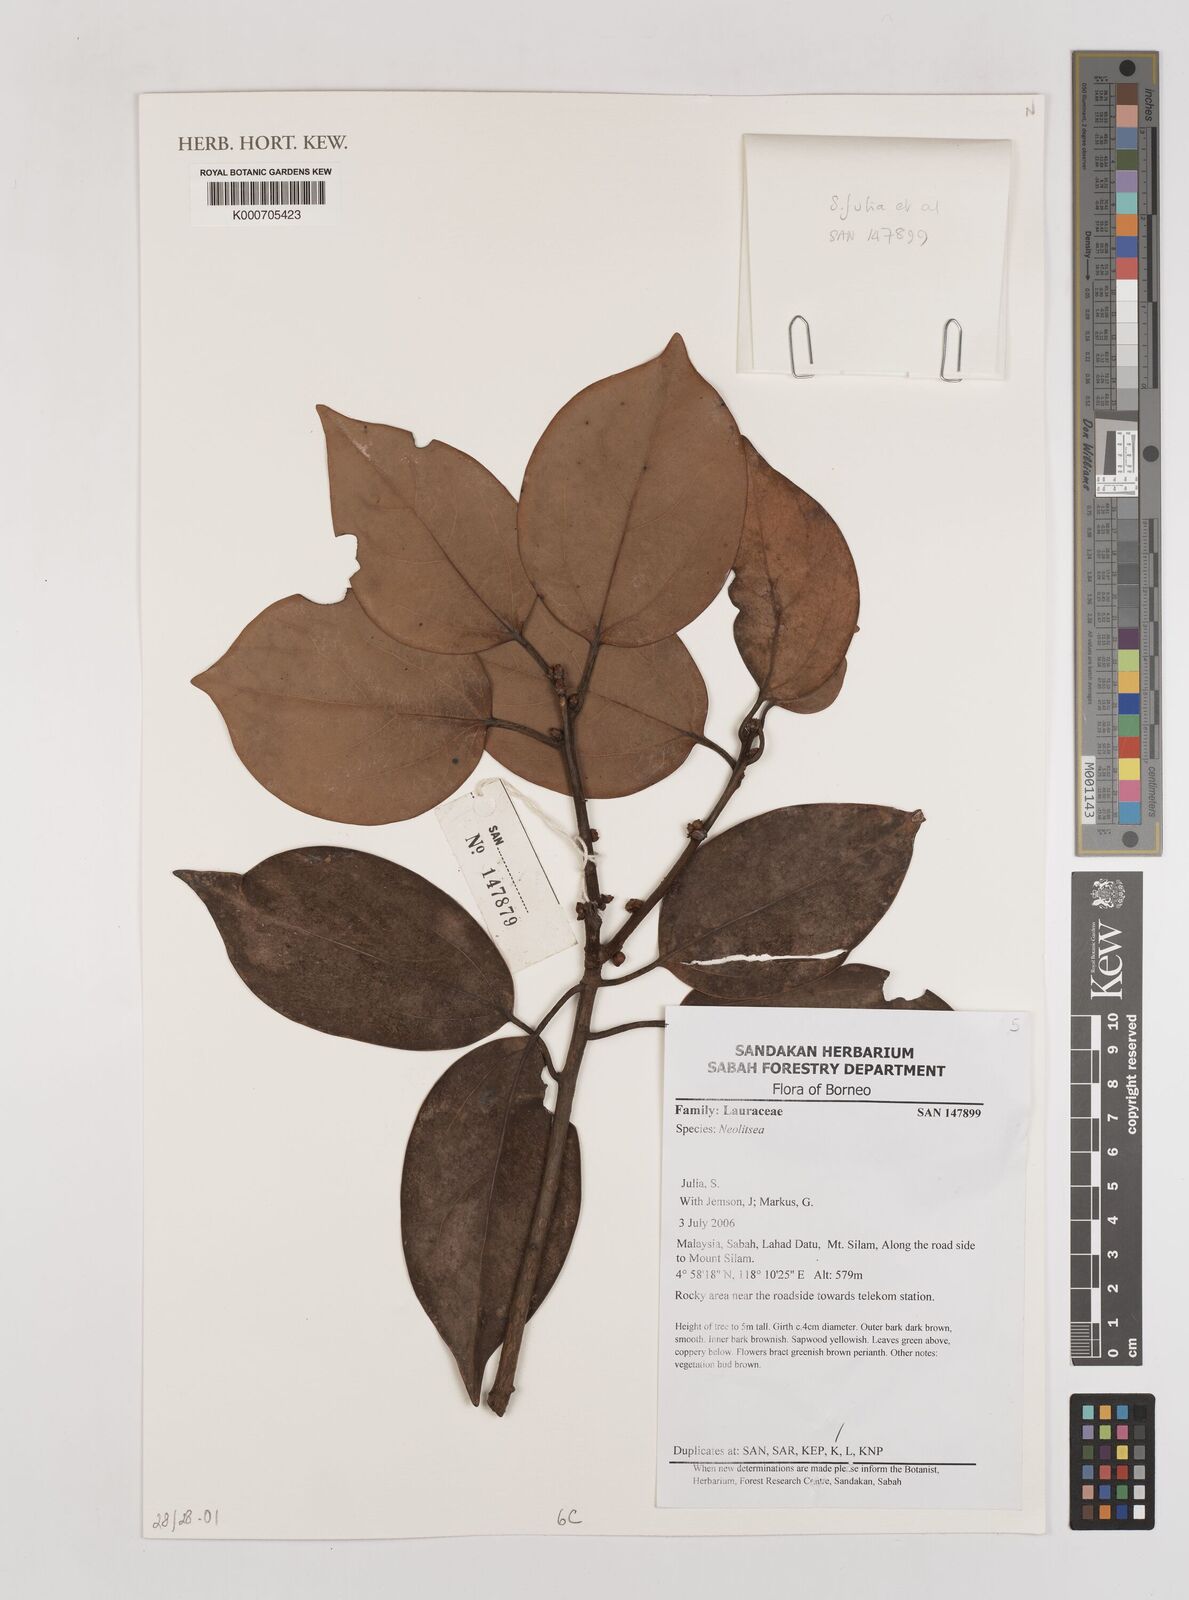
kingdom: Plantae
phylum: Tracheophyta
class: Magnoliopsida
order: Laurales
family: Lauraceae
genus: Neolitsea
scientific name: Neolitsea
